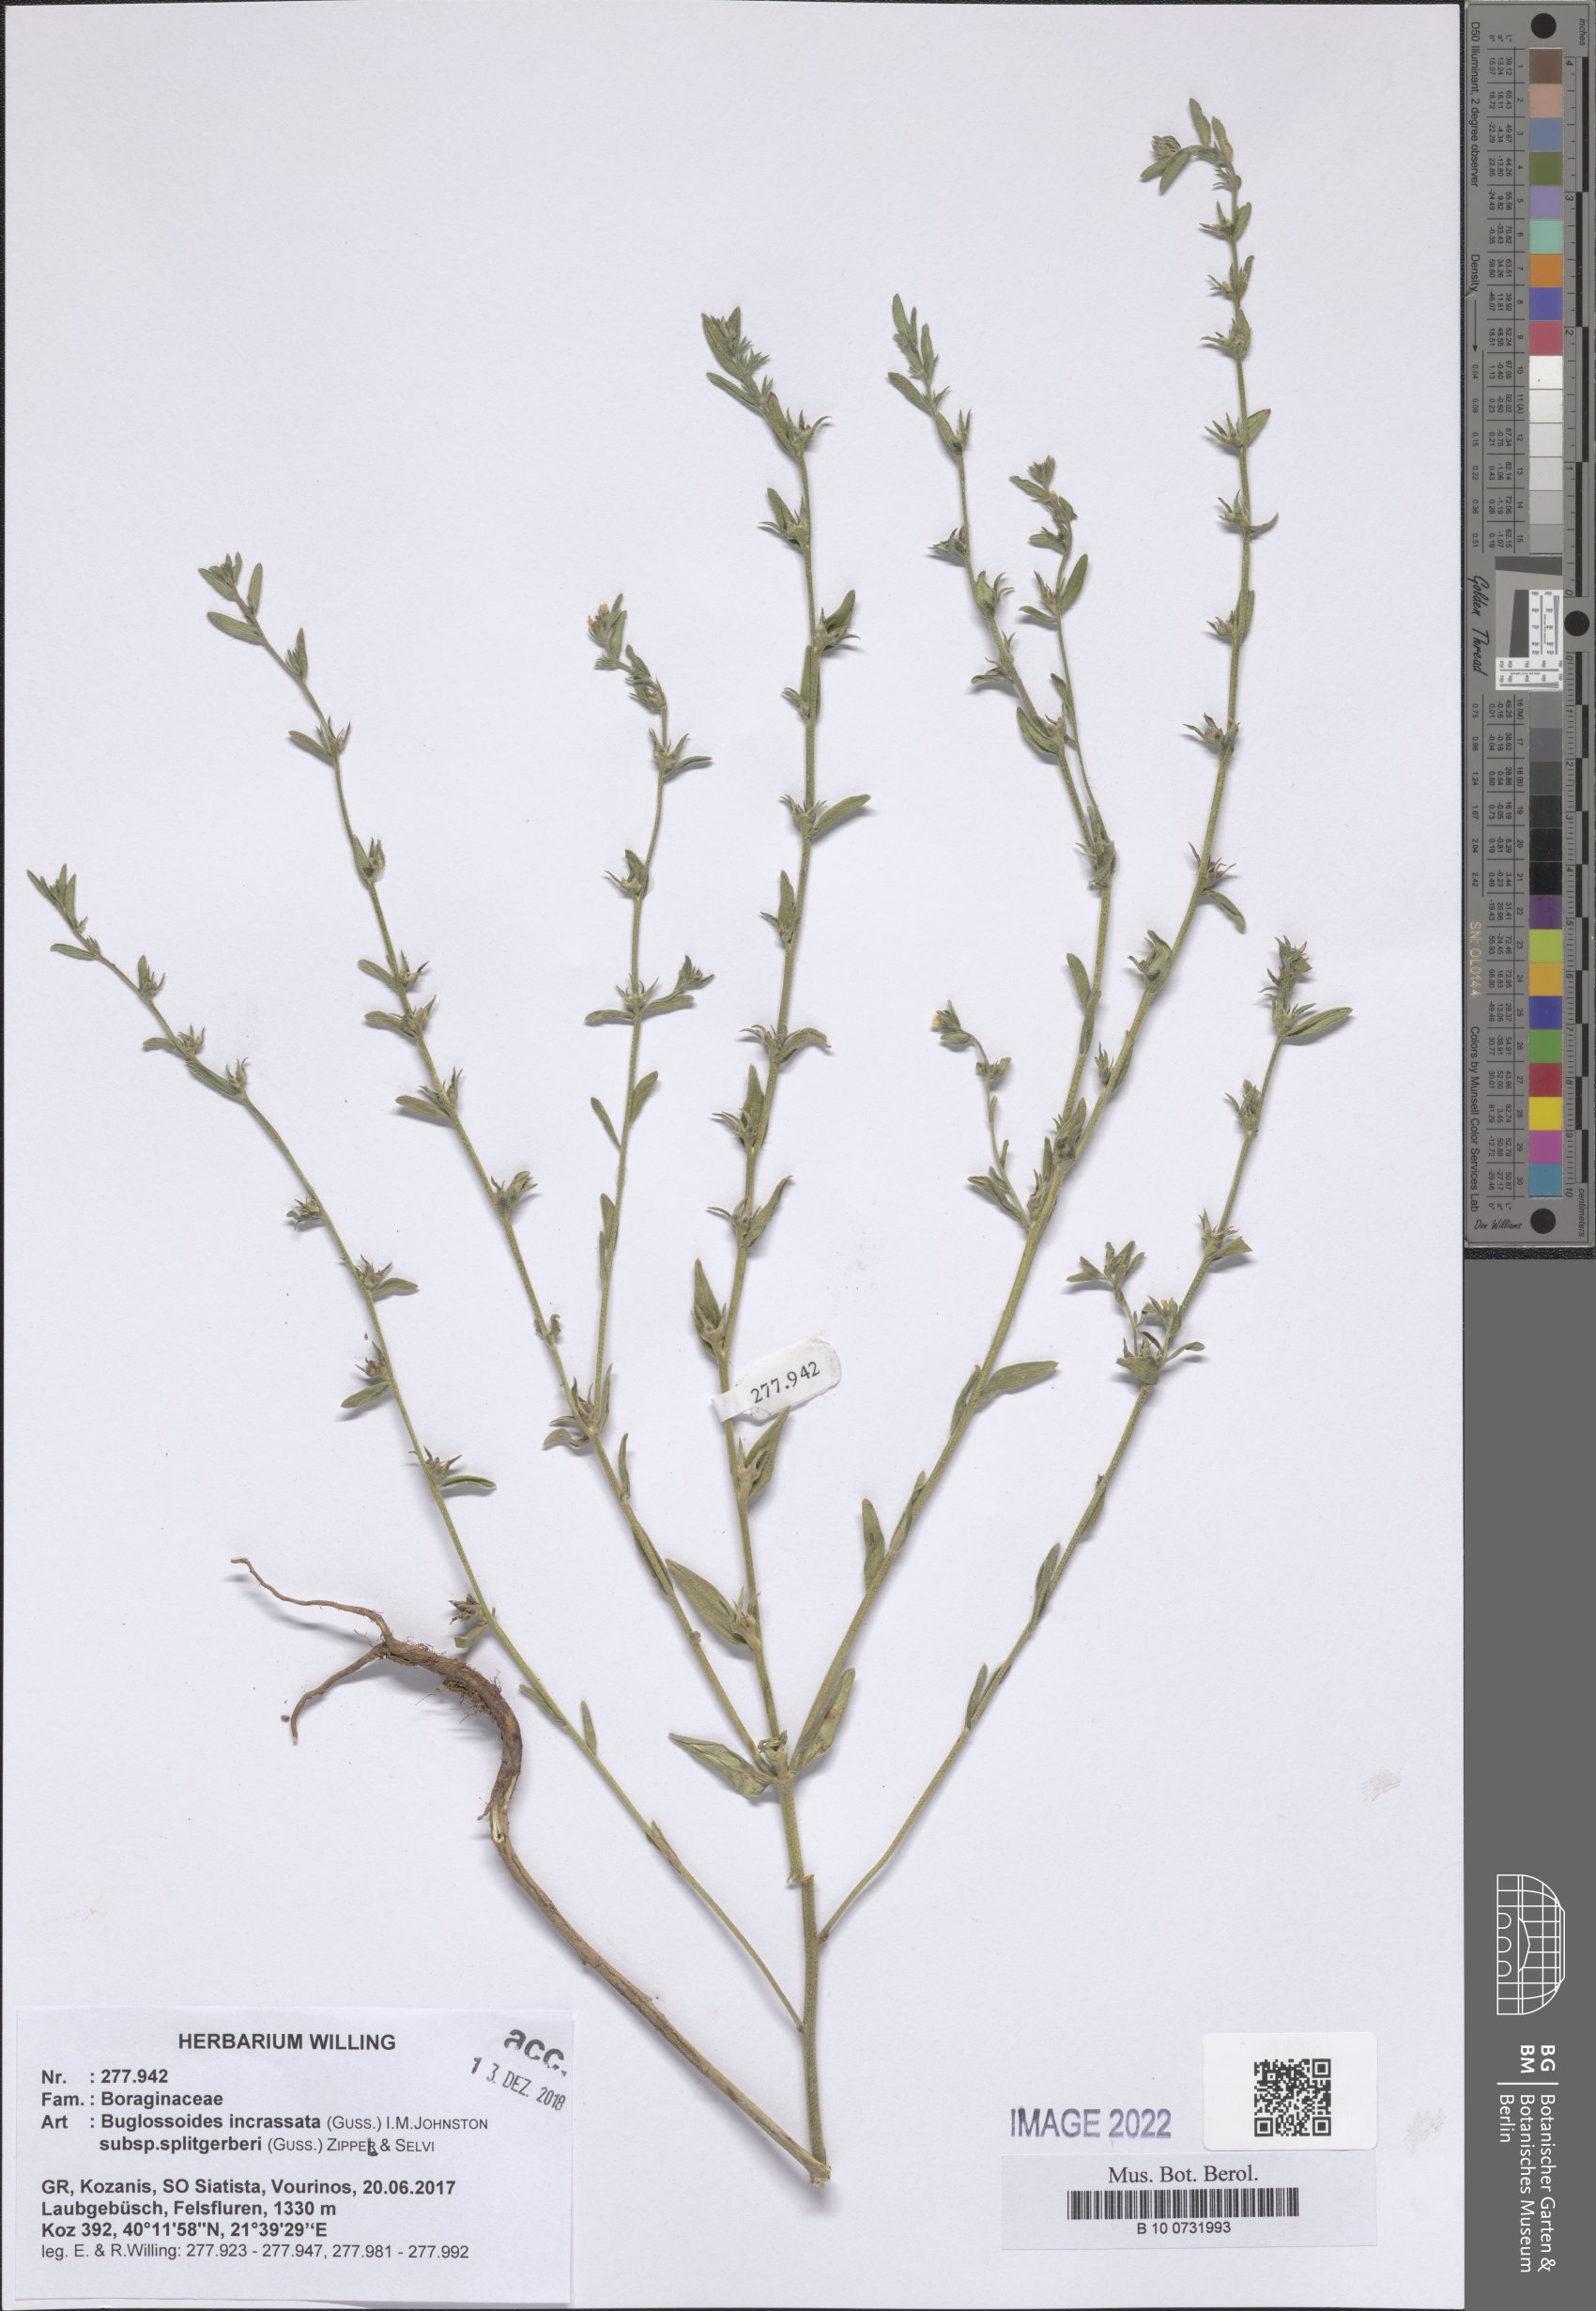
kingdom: Plantae
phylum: Tracheophyta
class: Magnoliopsida
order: Boraginales
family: Boraginaceae
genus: Buglossoides
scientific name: Buglossoides incrassata
